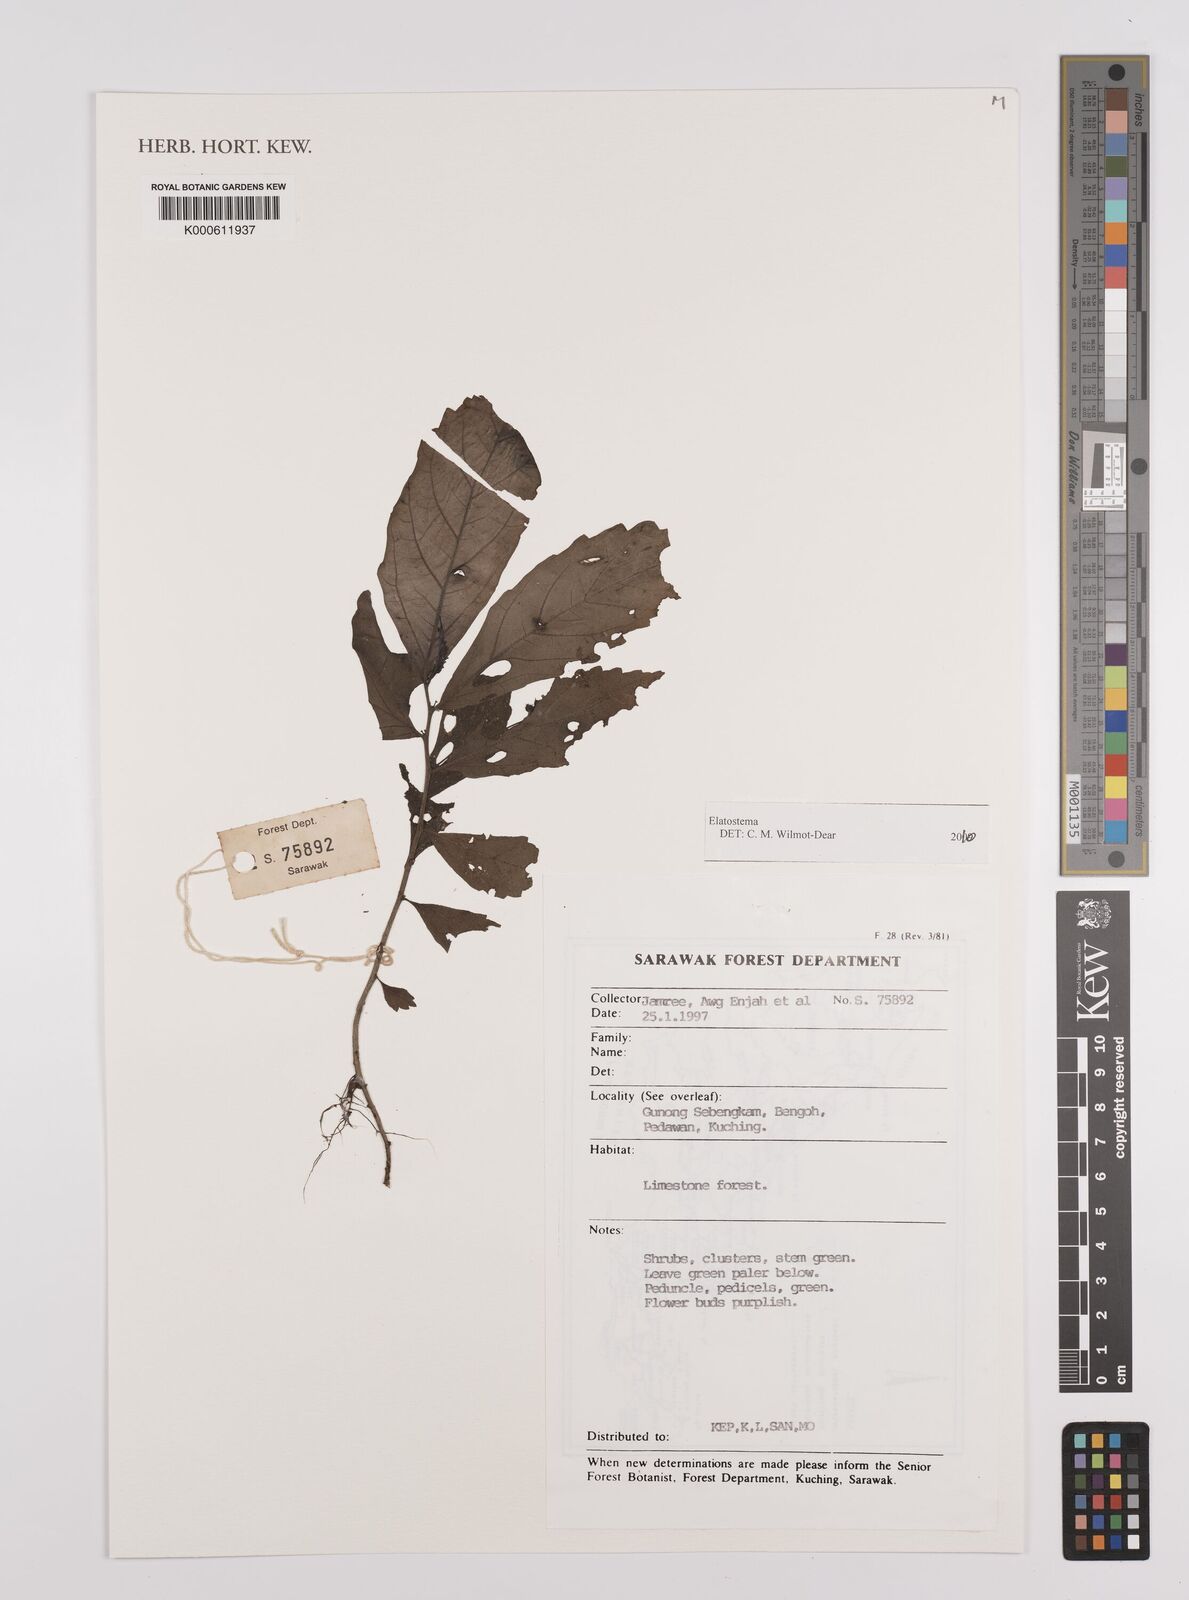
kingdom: Plantae
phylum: Tracheophyta
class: Magnoliopsida
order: Rosales
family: Urticaceae
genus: Elatostema
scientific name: Elatostema
